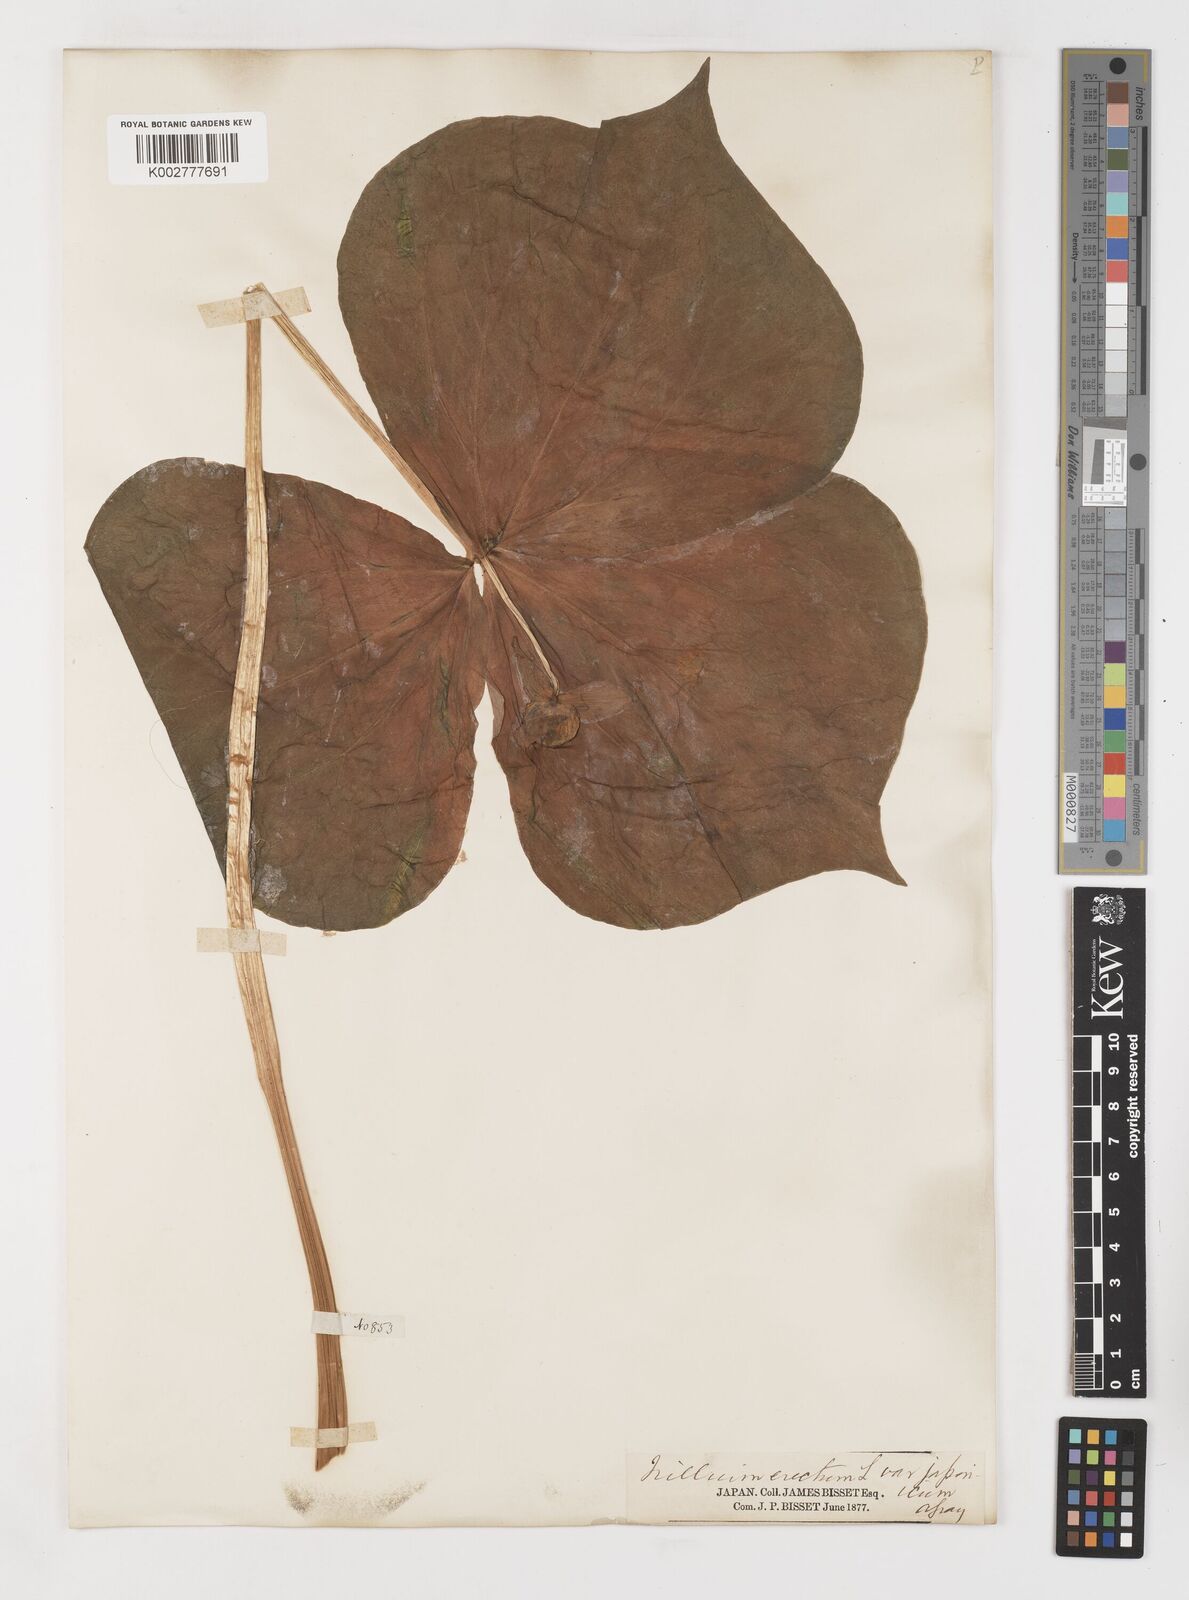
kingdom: Plantae
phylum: Tracheophyta
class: Liliopsida
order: Liliales
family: Melanthiaceae
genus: Trillium
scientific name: Trillium tschonoskii
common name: A pearl on head
